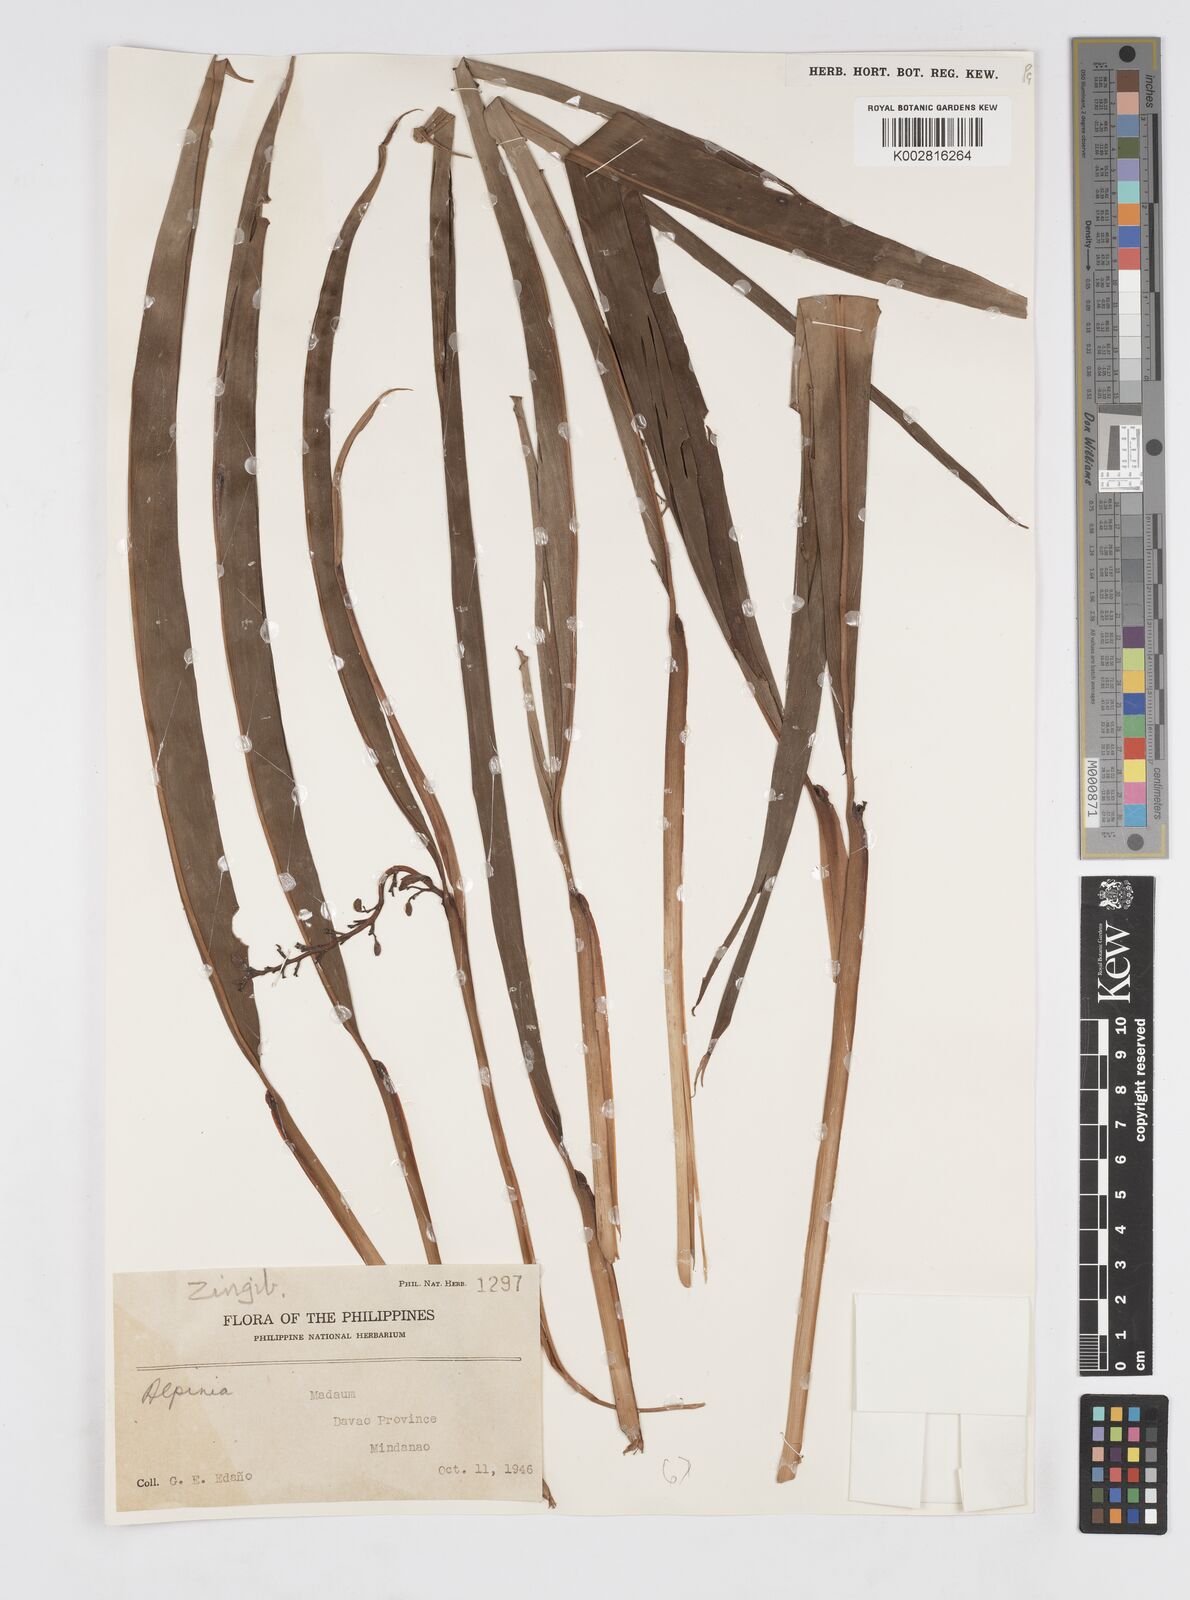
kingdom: Plantae
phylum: Tracheophyta
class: Liliopsida
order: Zingiberales
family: Zingiberaceae
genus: Alpinia
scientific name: Alpinia
